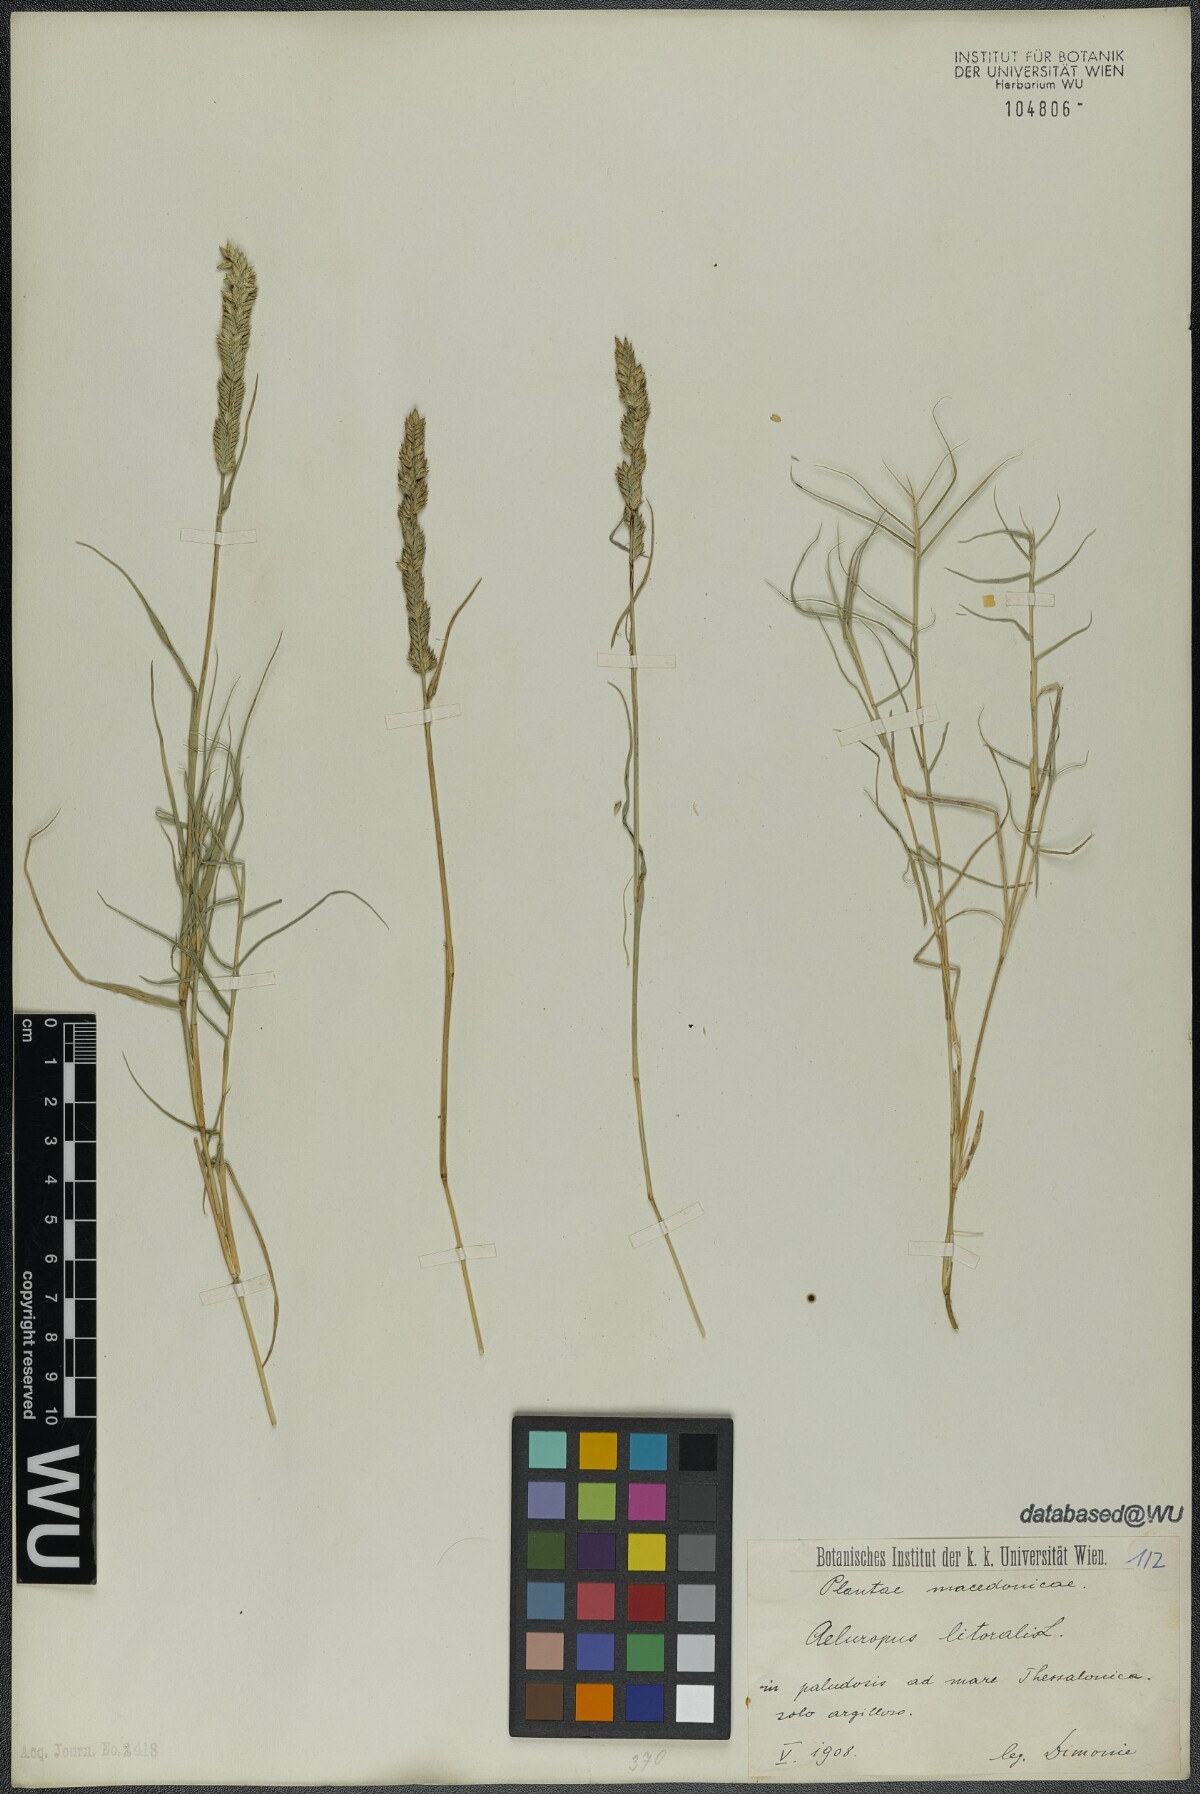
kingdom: Plantae
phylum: Tracheophyta
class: Liliopsida
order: Poales
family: Poaceae
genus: Aeluropus
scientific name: Aeluropus littoralis
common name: Indian walnut
